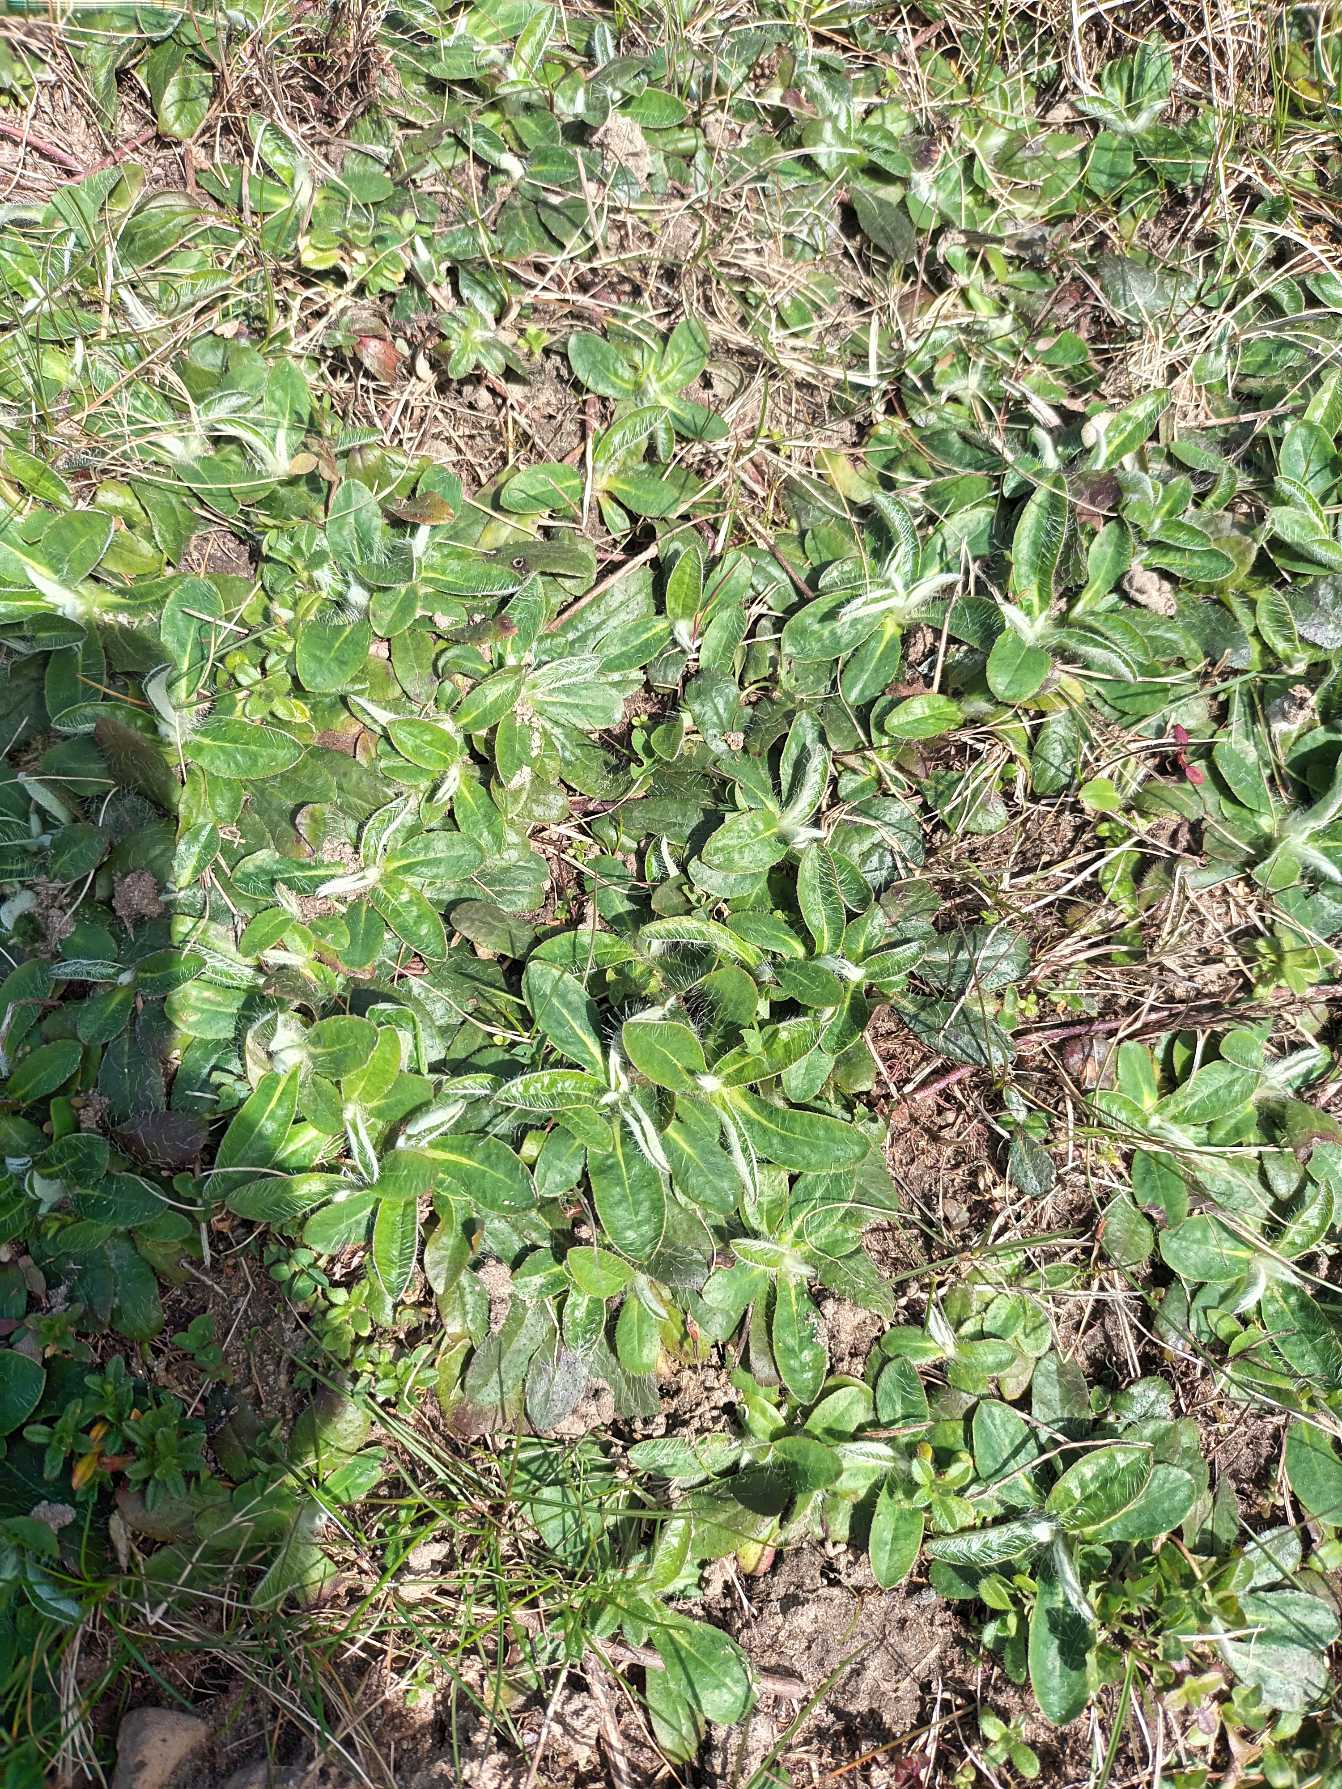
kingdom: Plantae
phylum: Tracheophyta
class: Magnoliopsida
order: Asterales
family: Asteraceae
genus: Pilosella
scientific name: Pilosella officinarum
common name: Håret høgeurt
